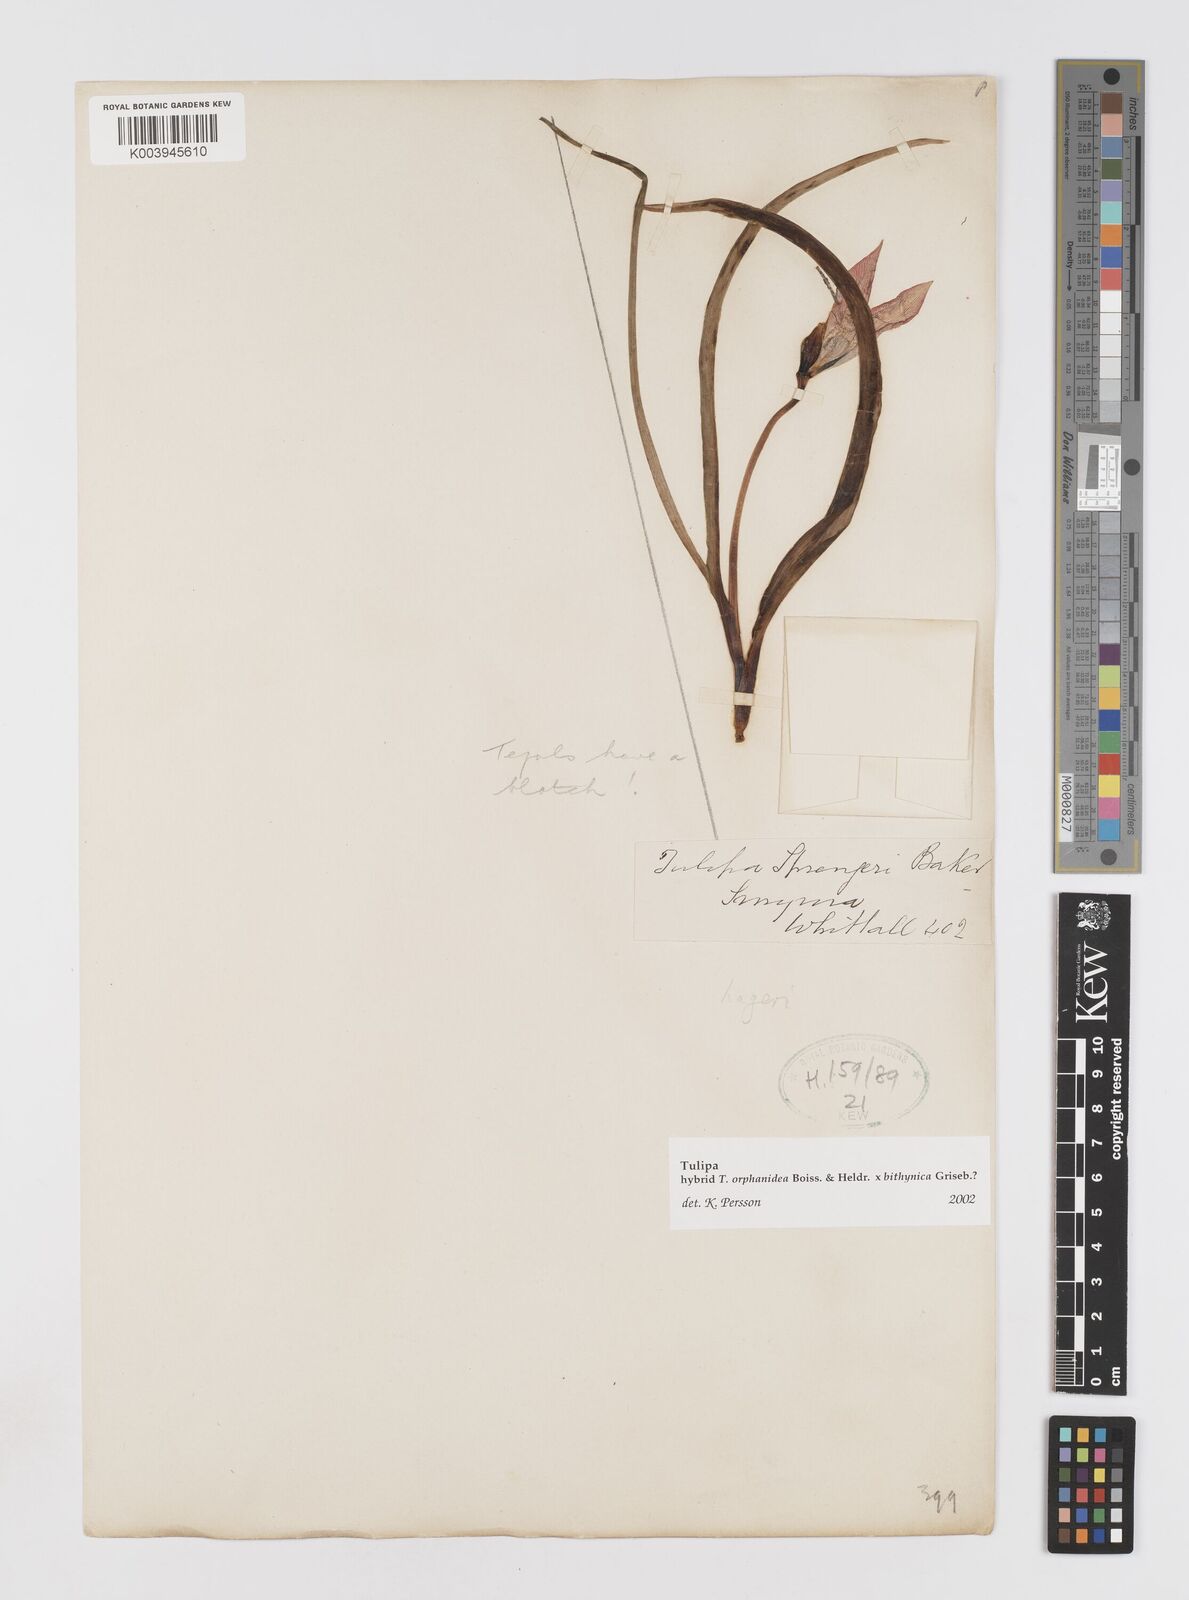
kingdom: Plantae
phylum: Tracheophyta
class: Liliopsida
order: Liliales
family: Liliaceae
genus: Tulipa
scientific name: Tulipa orphanidea
